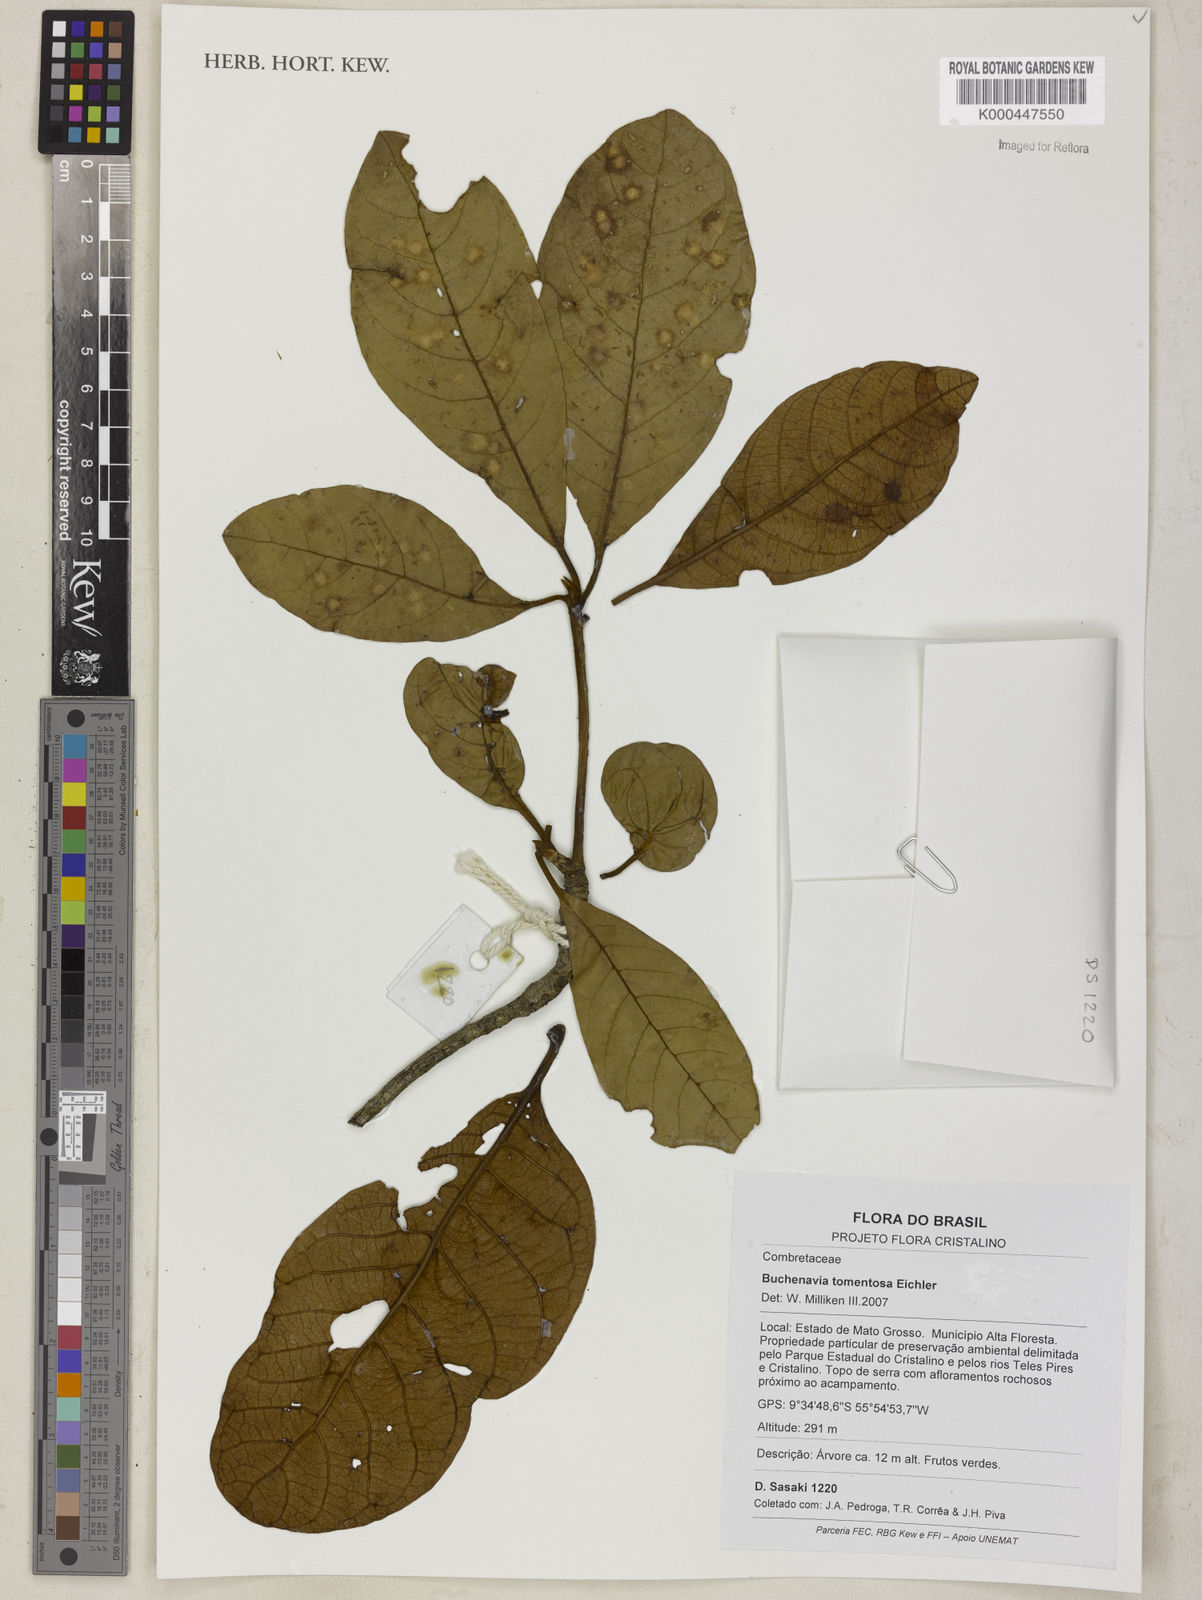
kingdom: Plantae
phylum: Tracheophyta
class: Magnoliopsida
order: Myrtales
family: Combretaceae
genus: Terminalia
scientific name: Terminalia corrugata
